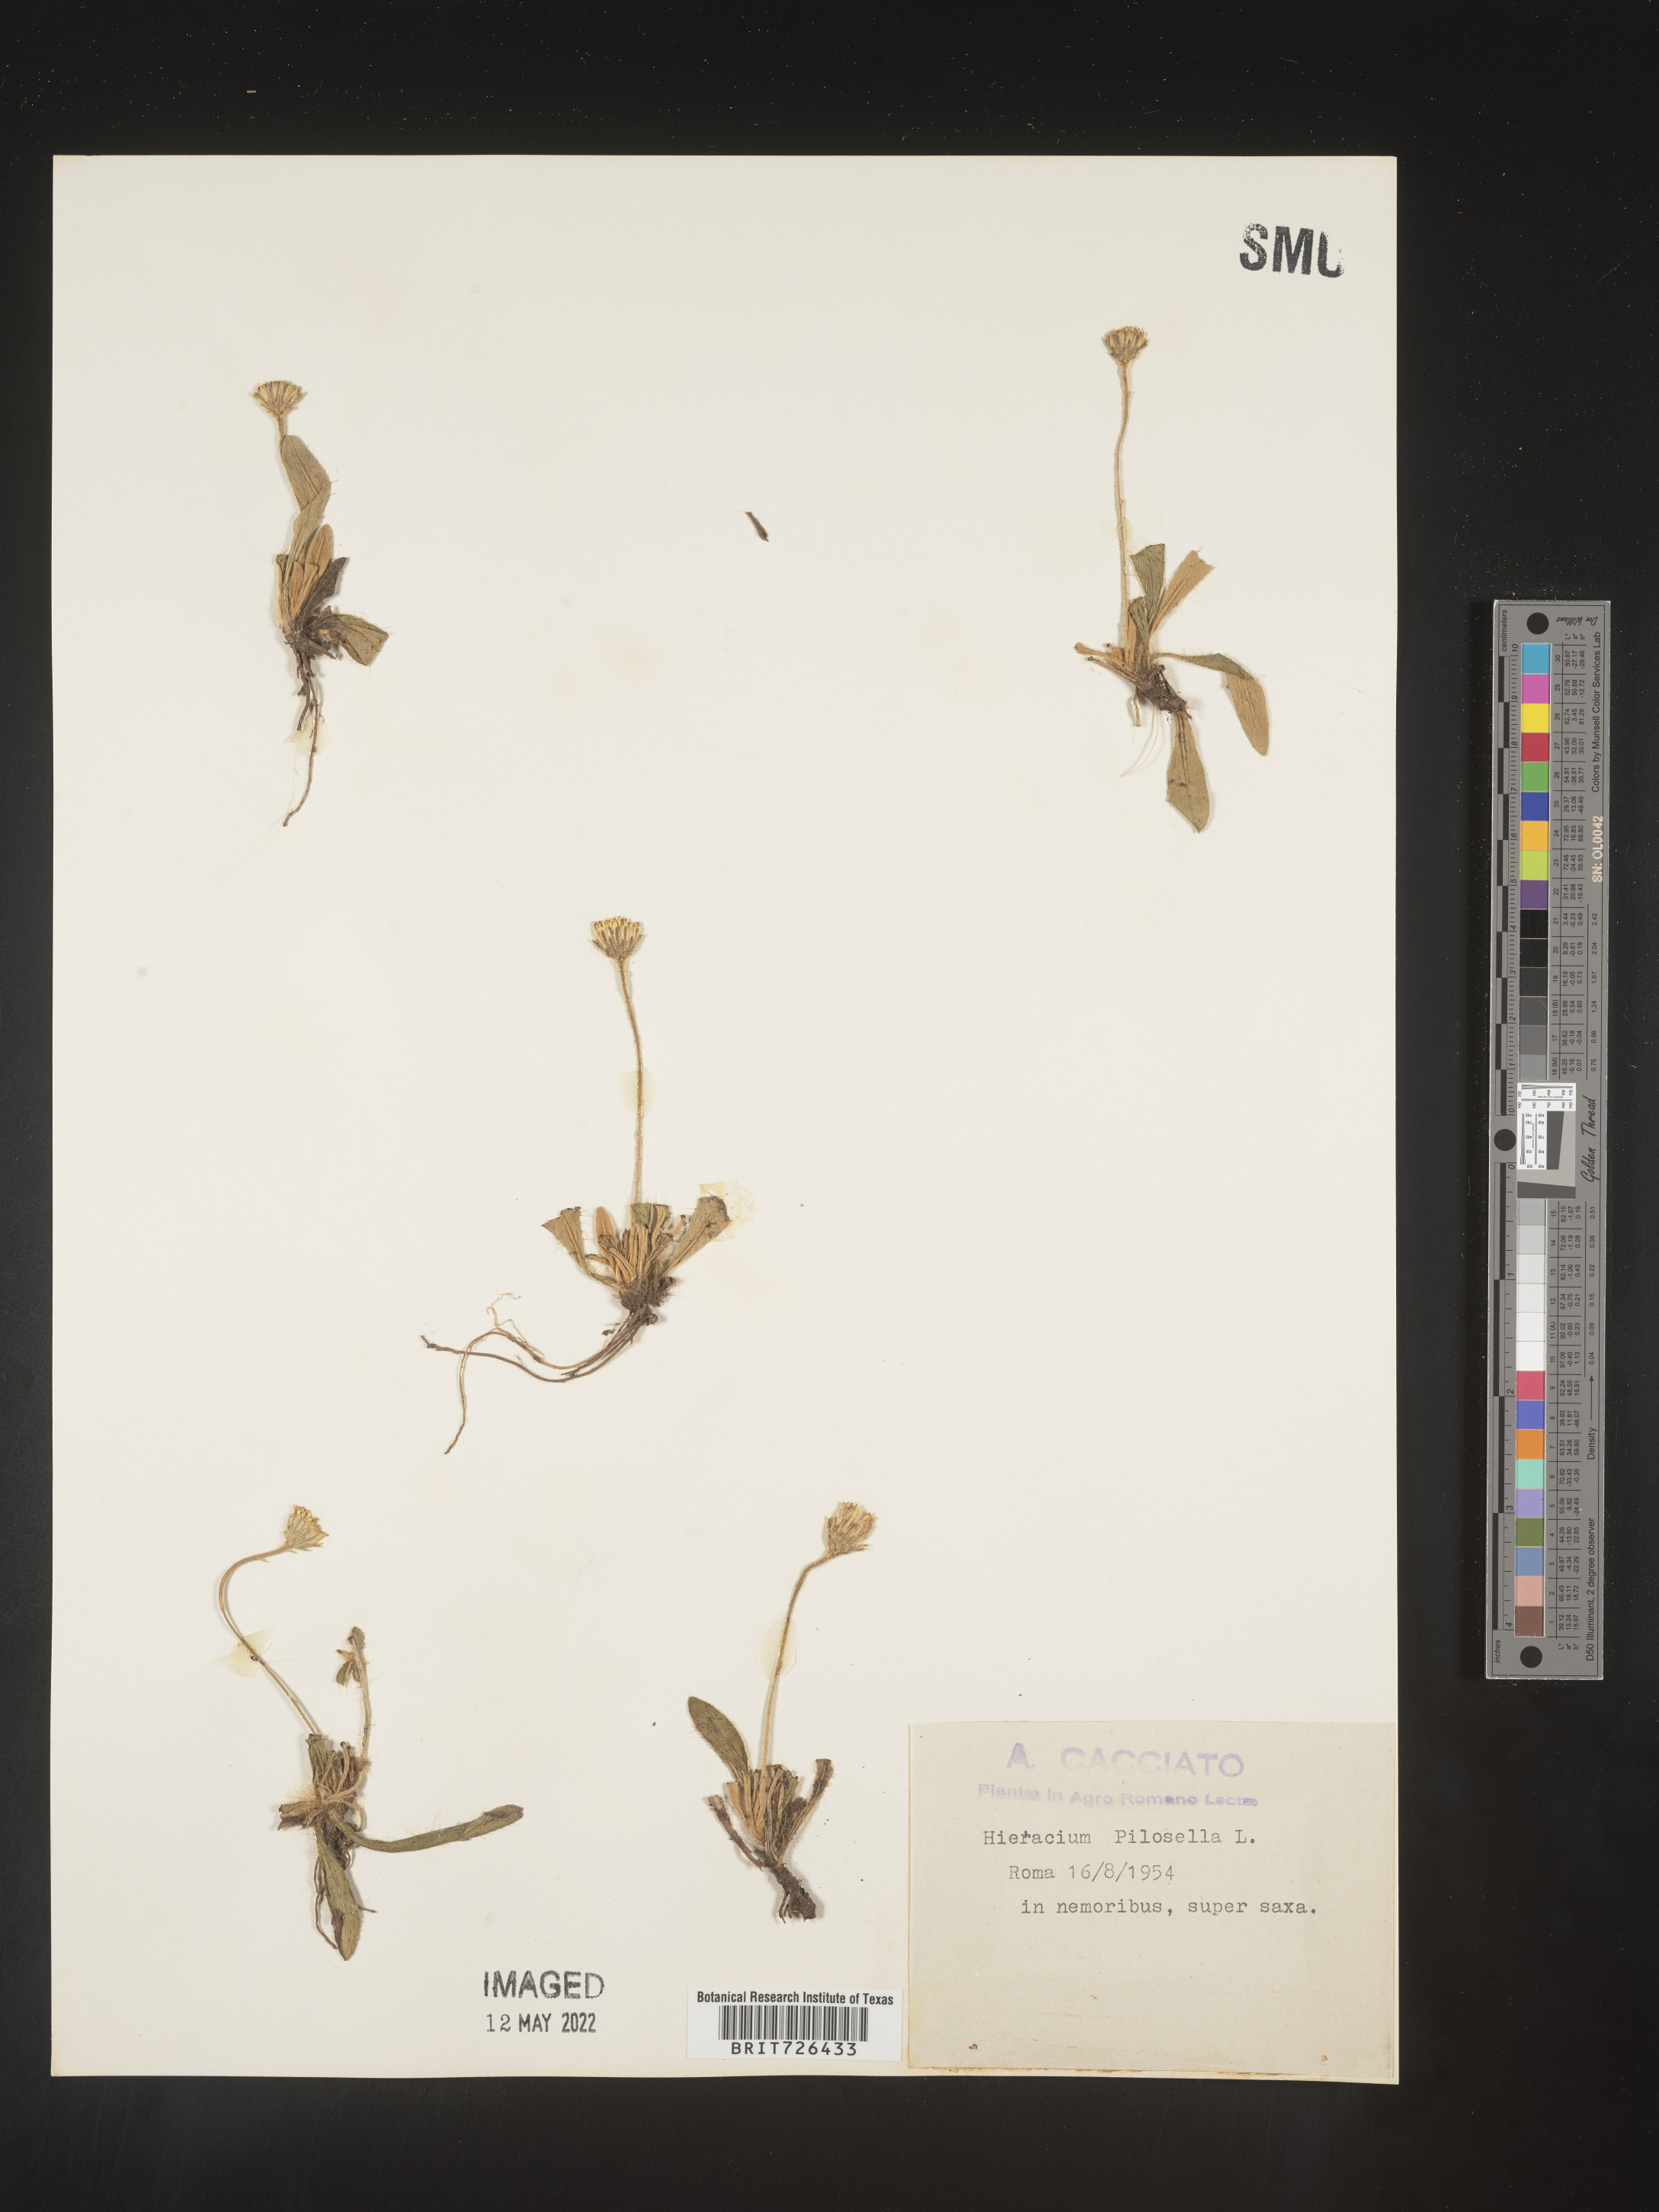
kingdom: Plantae
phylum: Tracheophyta
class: Magnoliopsida
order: Asterales
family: Asteraceae
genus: Hieracium
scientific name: Hieracium
